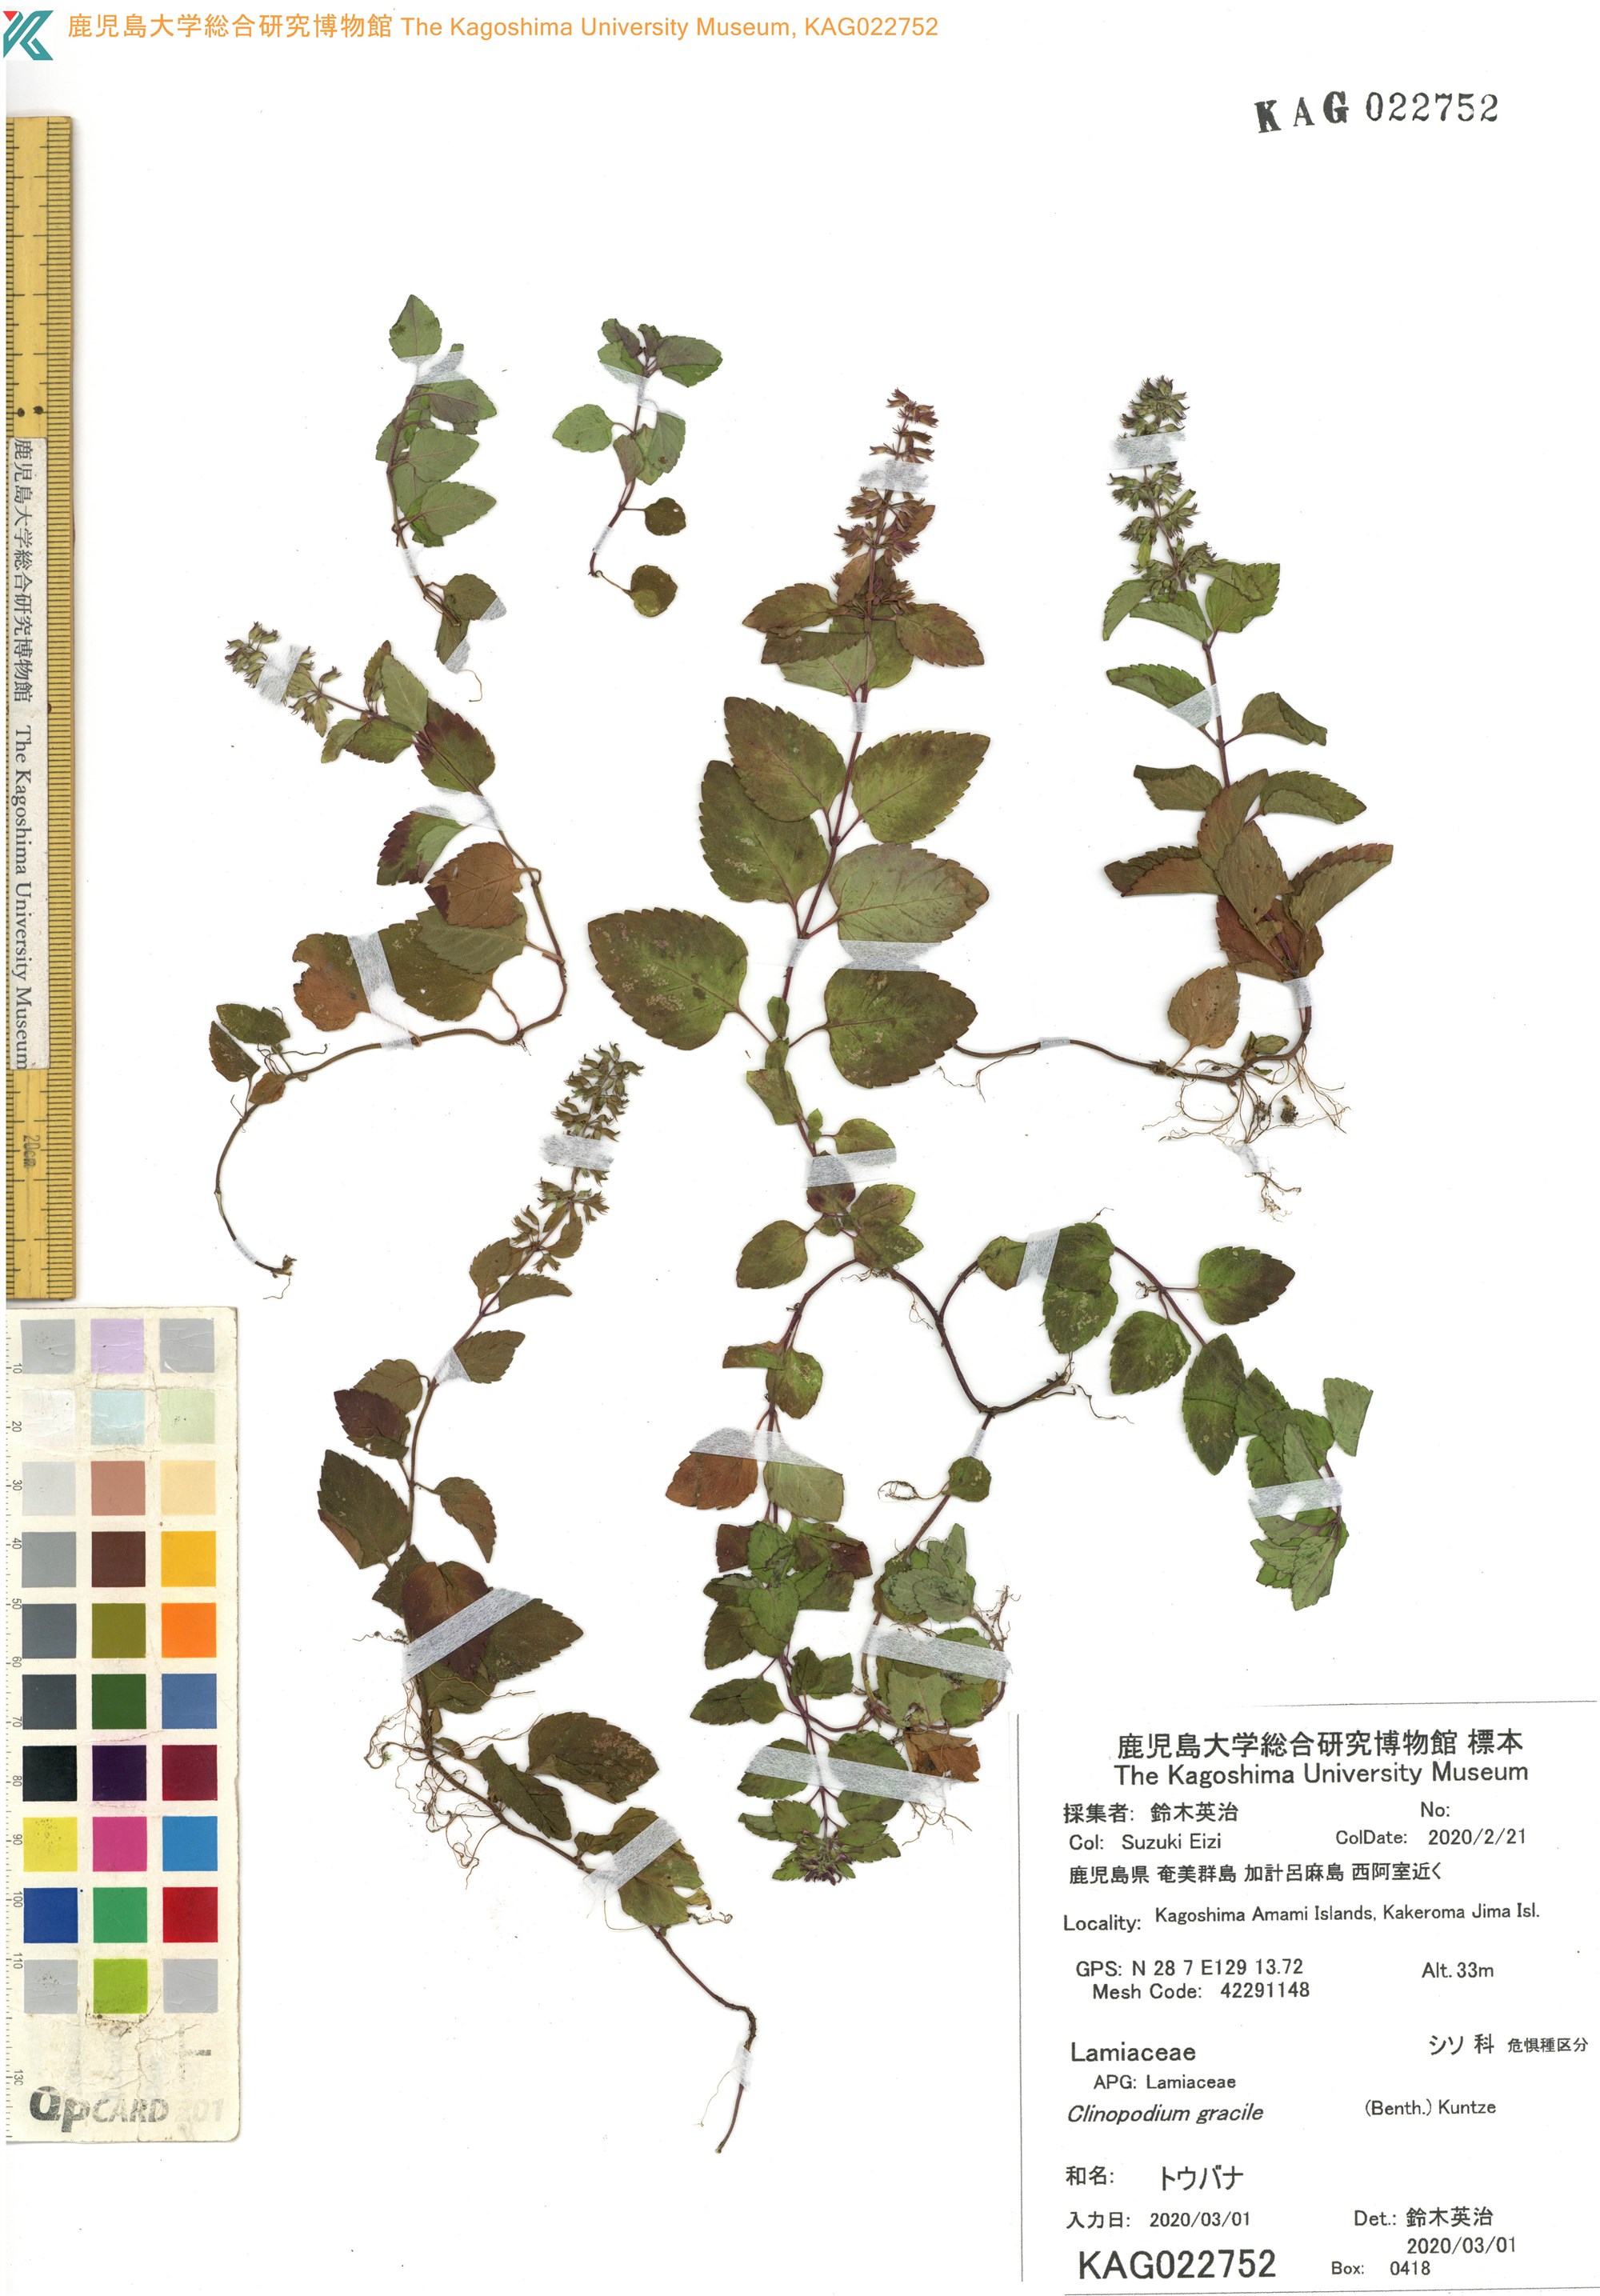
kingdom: Plantae
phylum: Tracheophyta
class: Magnoliopsida
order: Lamiales
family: Lamiaceae
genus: Clinopodium
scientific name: Clinopodium gracile
